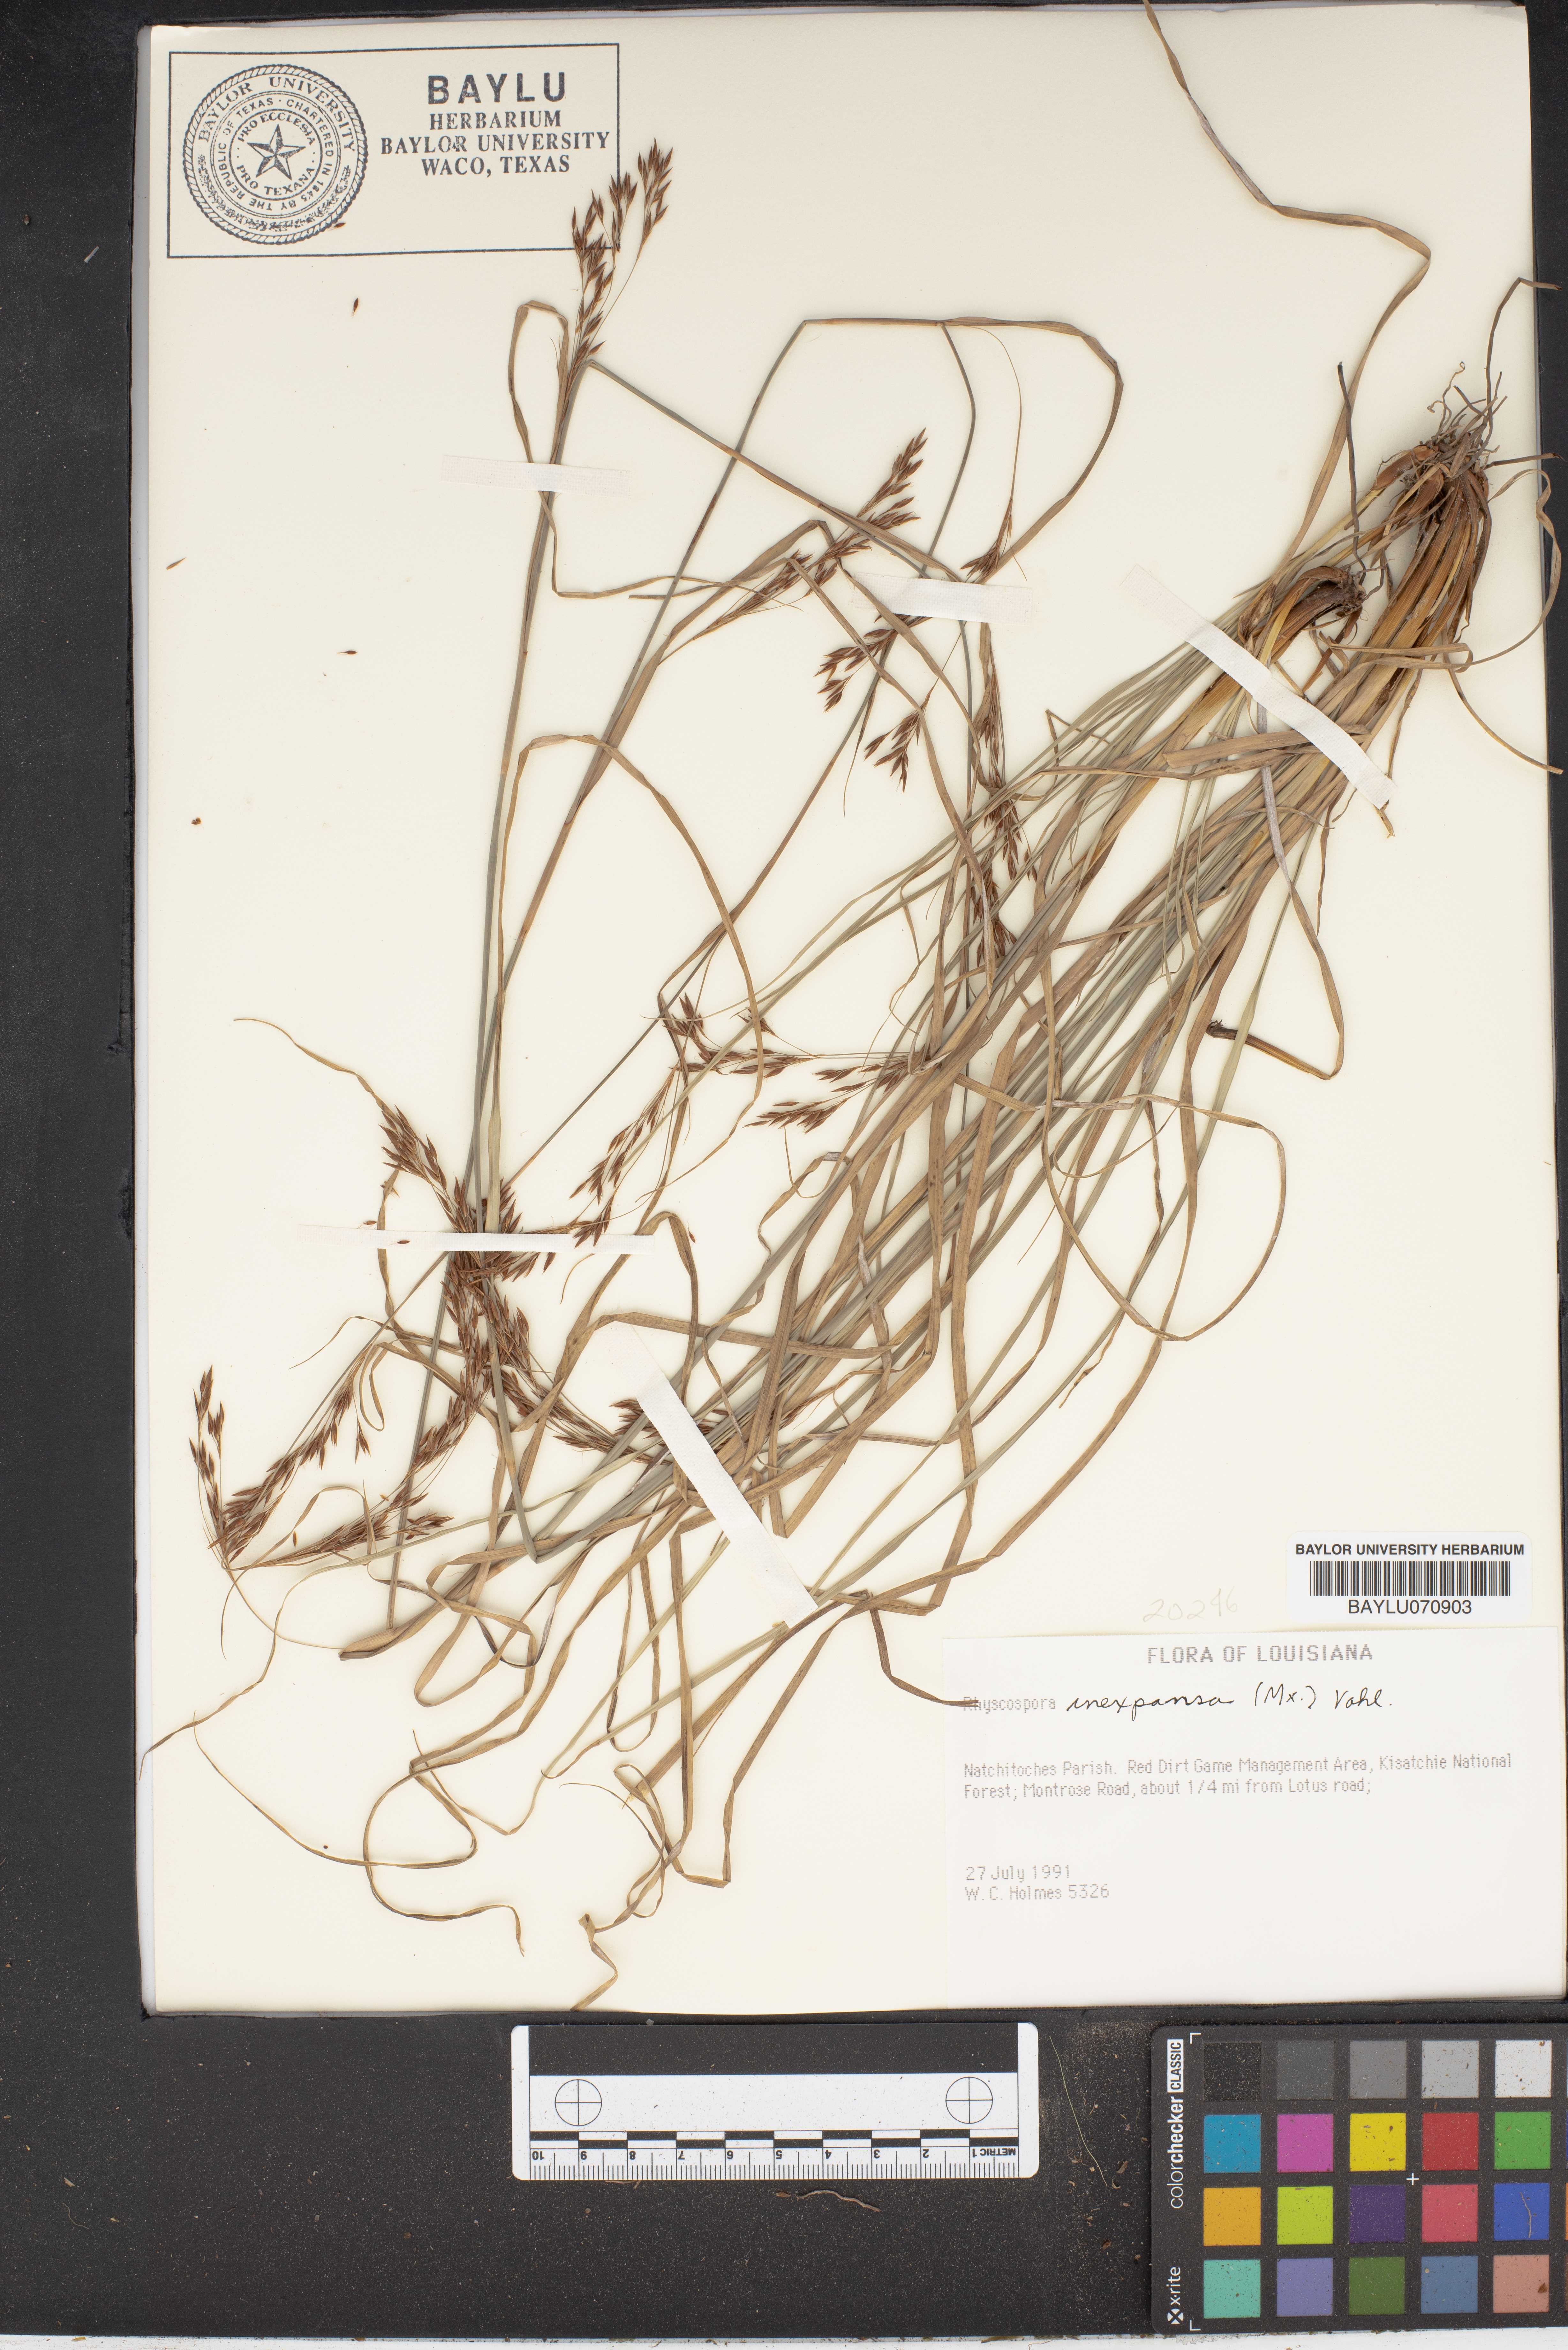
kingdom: Plantae
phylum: Tracheophyta
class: Liliopsida
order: Poales
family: Cyperaceae
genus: Rhynchospora
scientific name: Rhynchospora inexpansa
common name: Nodding beaksedge
